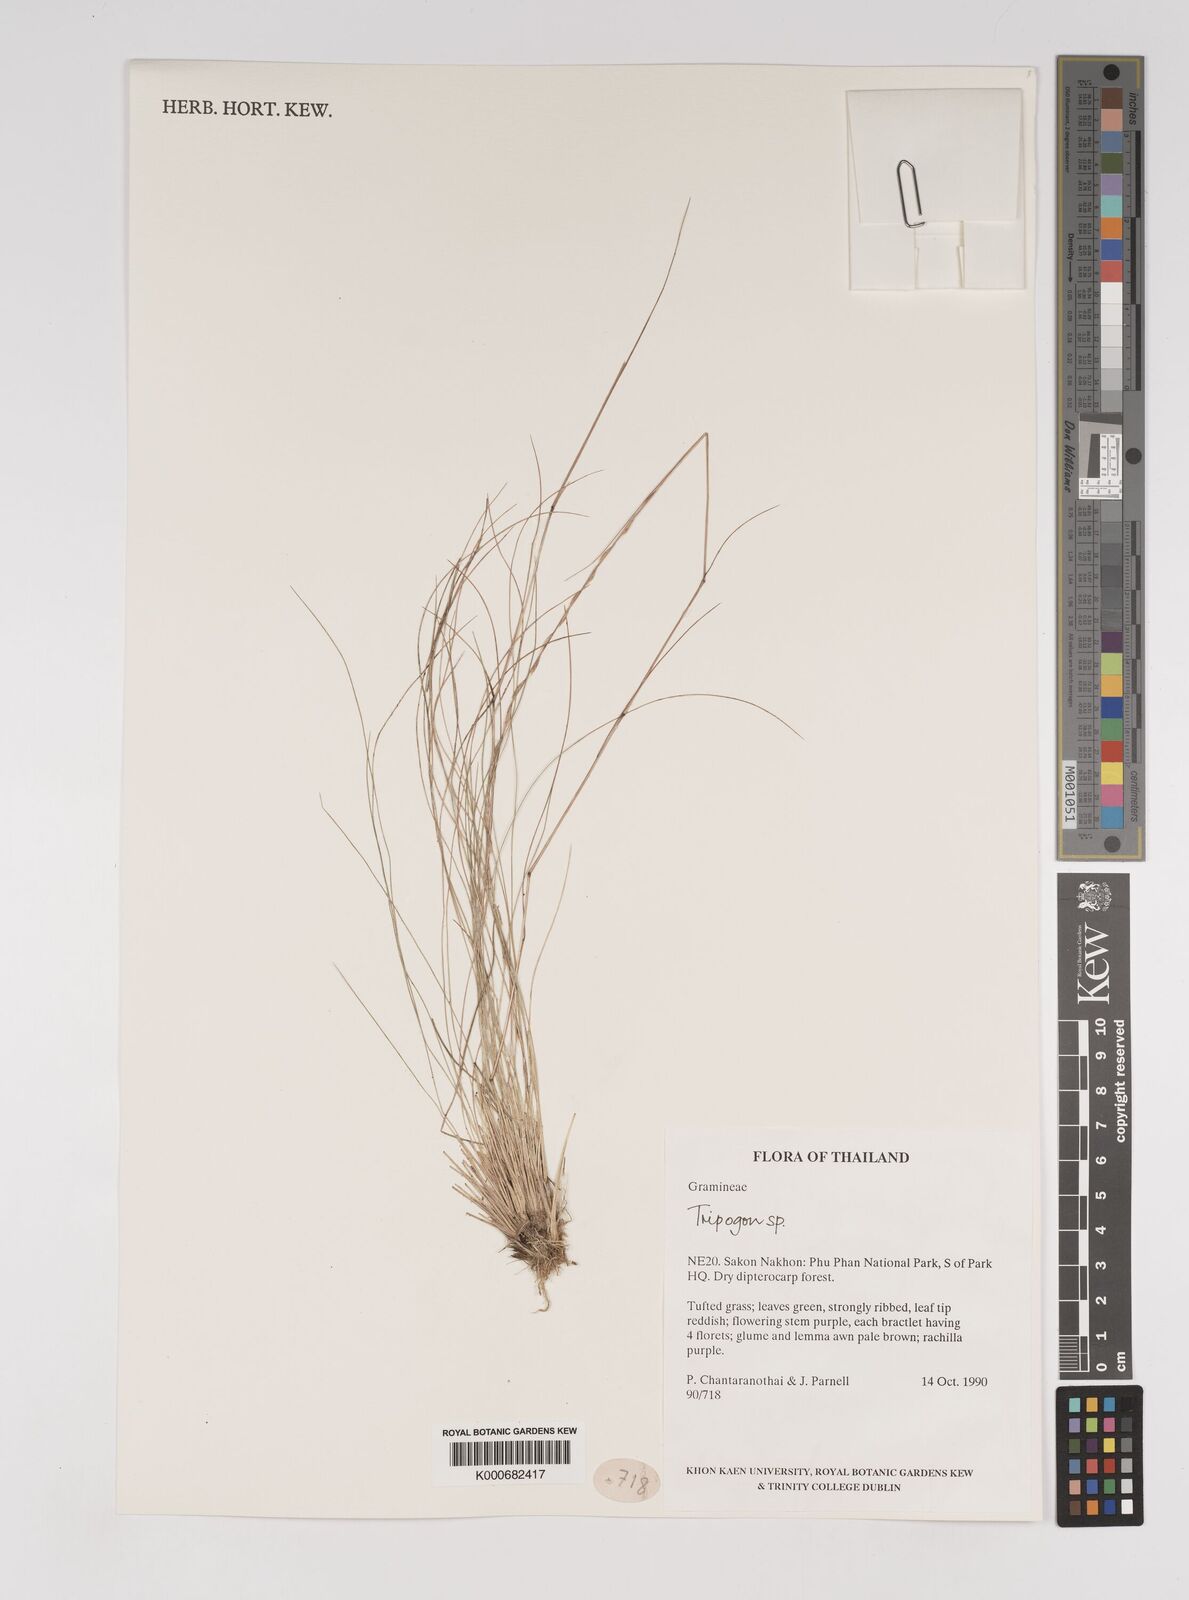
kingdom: Plantae
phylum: Tracheophyta
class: Liliopsida
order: Poales
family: Poaceae
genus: Tripogon
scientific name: Tripogon
